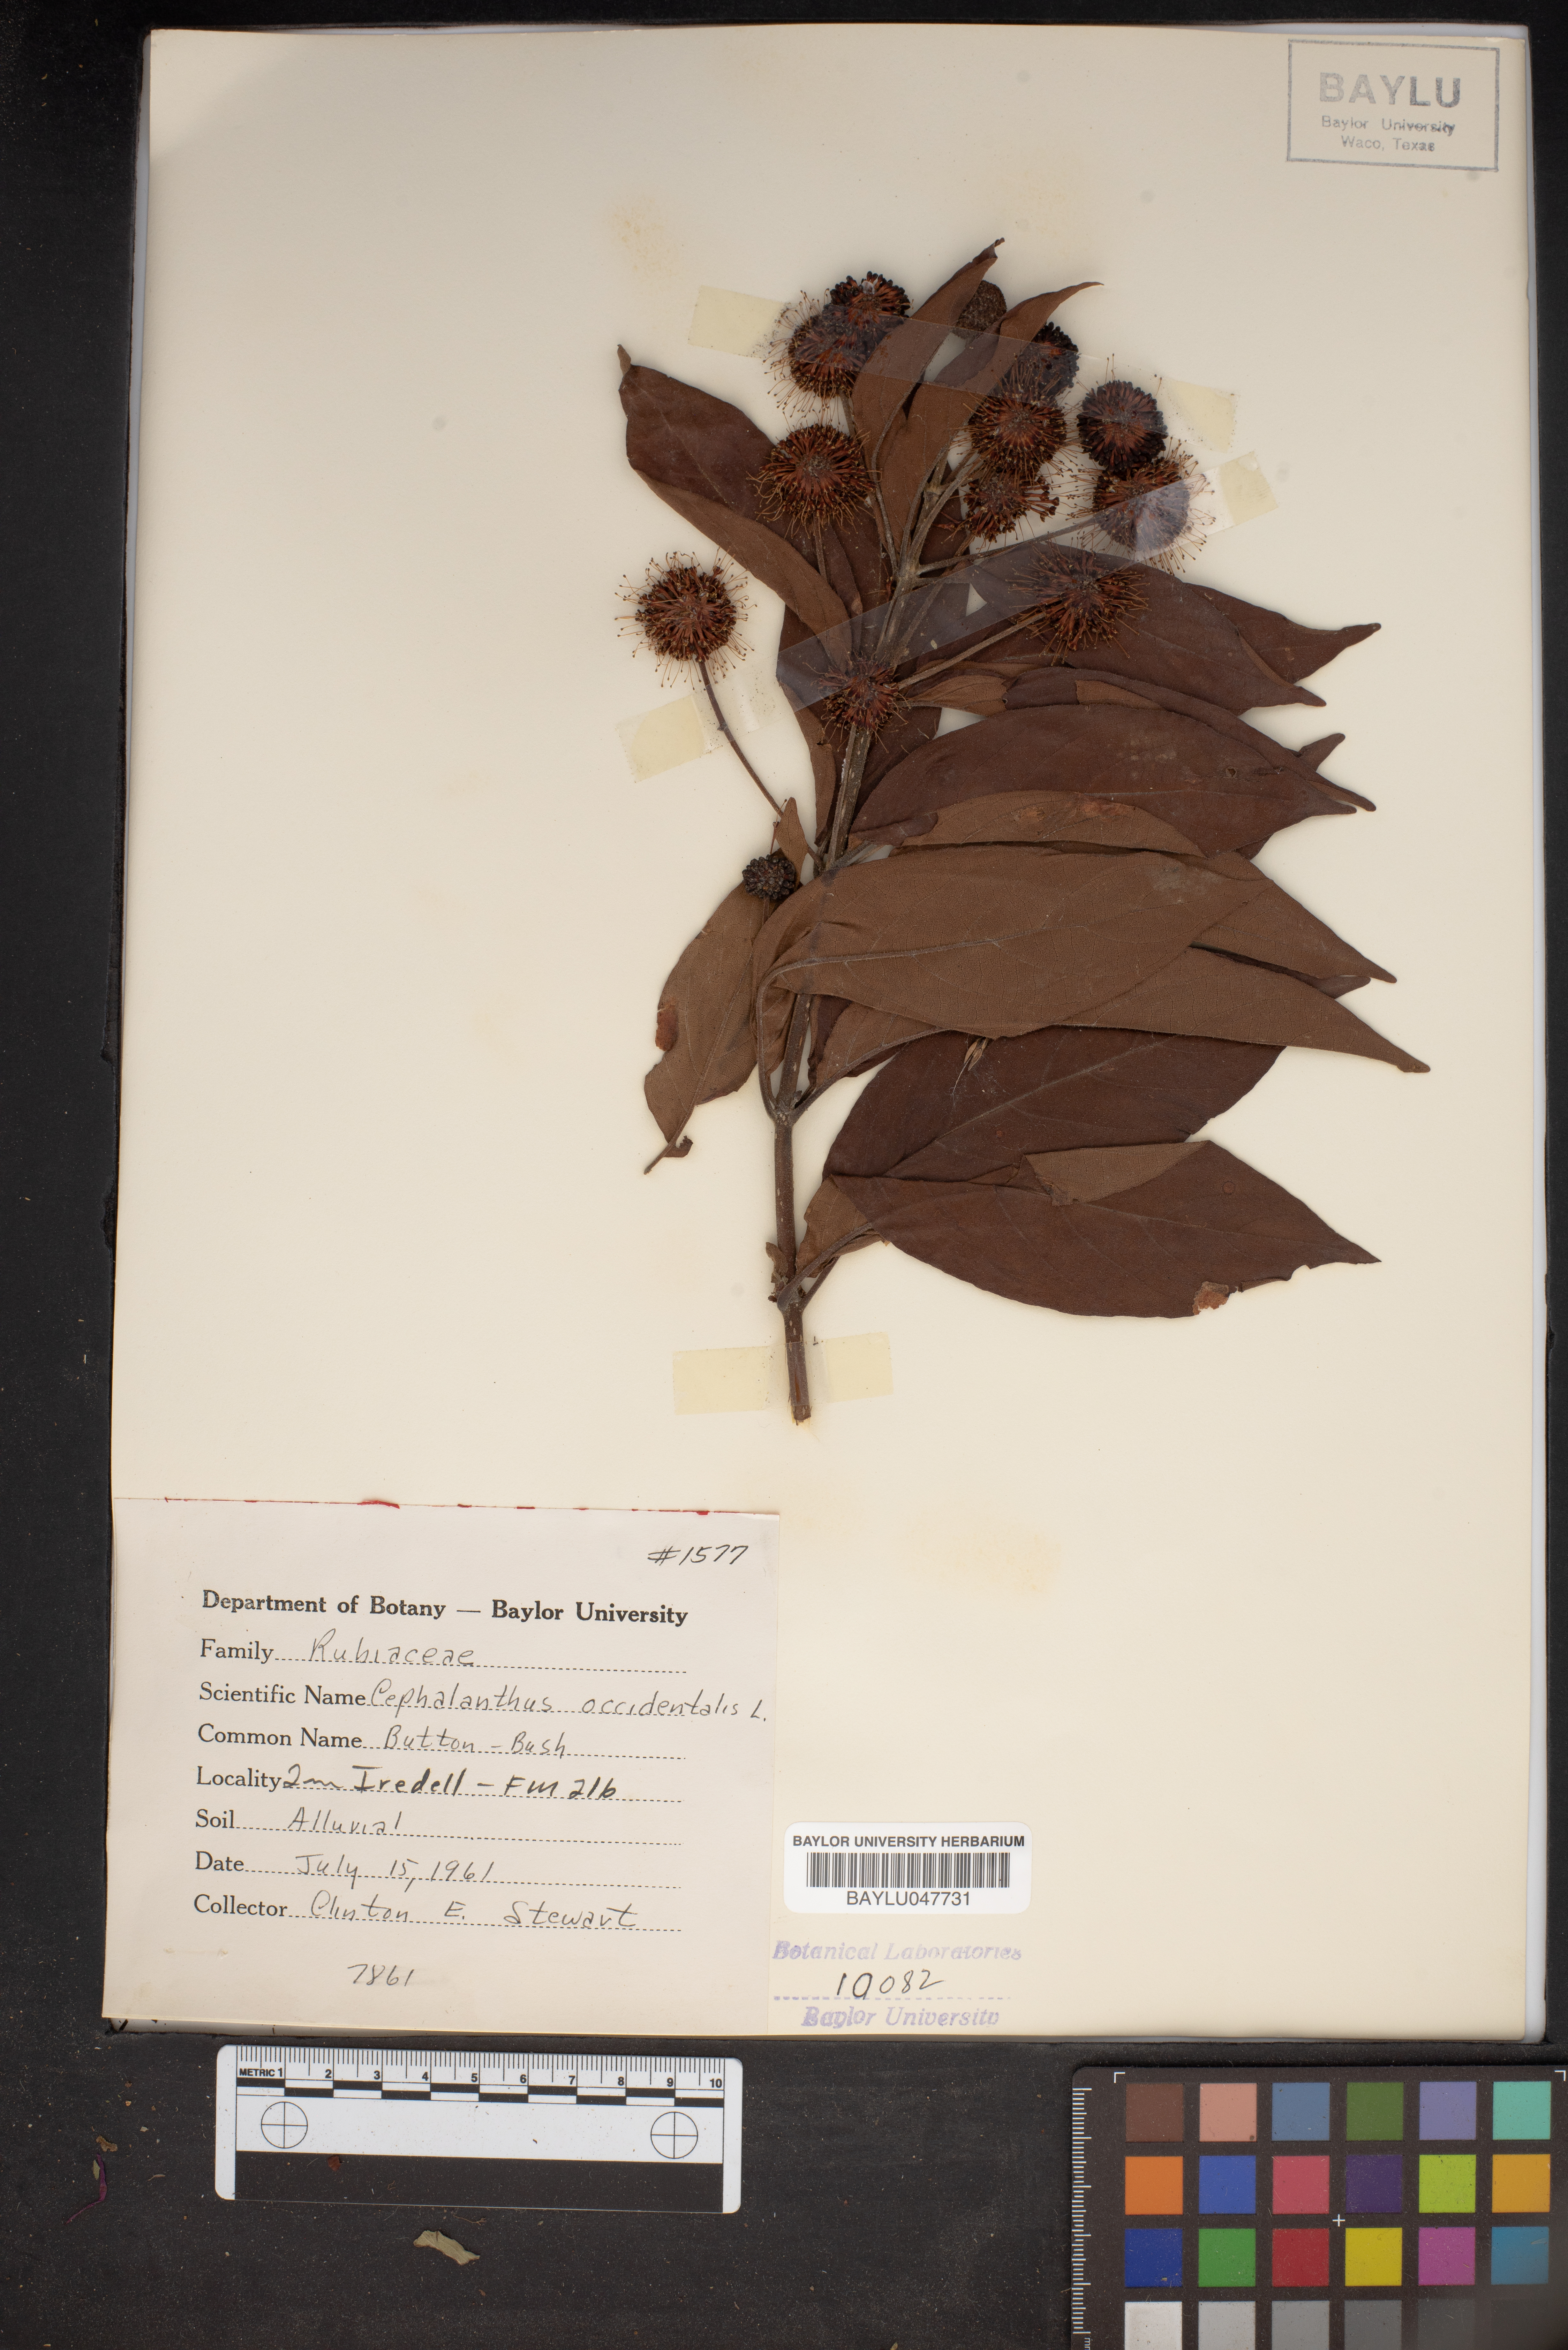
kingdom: Plantae
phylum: Tracheophyta
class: Magnoliopsida
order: Gentianales
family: Rubiaceae
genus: Cephalanthus
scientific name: Cephalanthus occidentalis
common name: Button-willow
